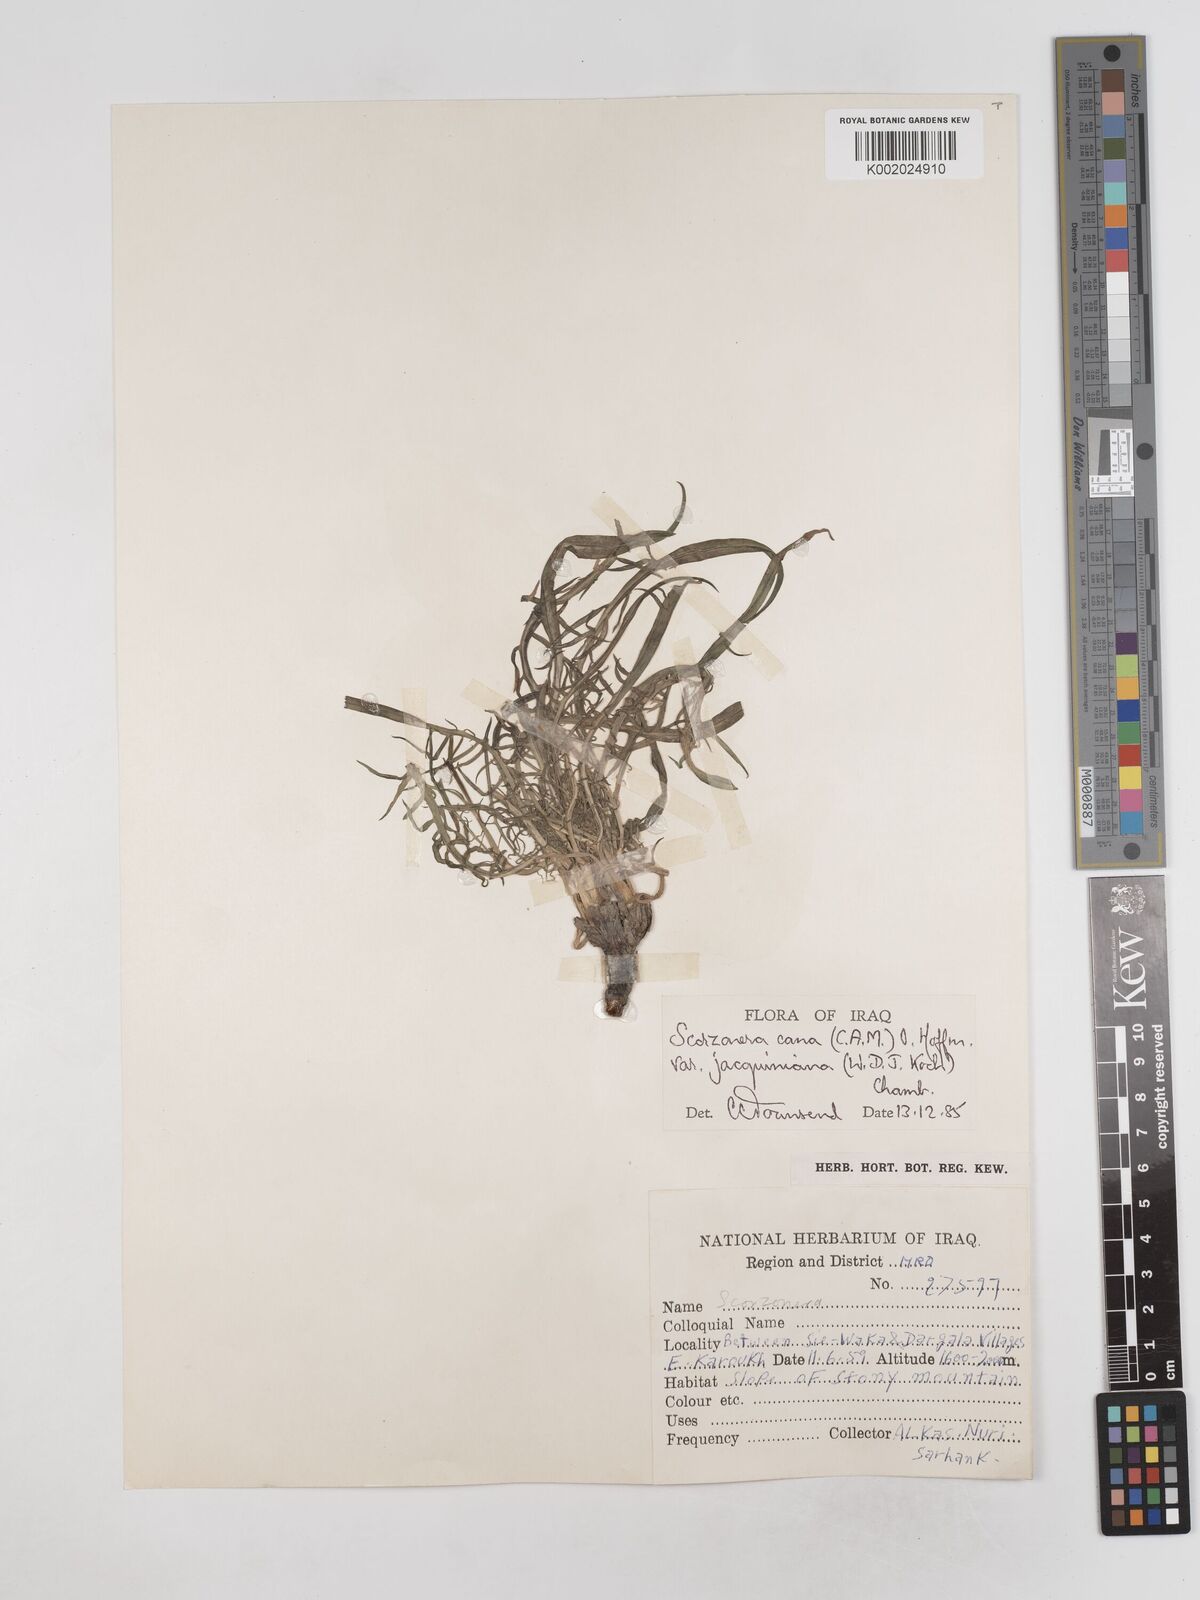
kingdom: Plantae
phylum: Tracheophyta
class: Magnoliopsida
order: Asterales
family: Asteraceae
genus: Scorzonera
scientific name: Scorzonera cana
